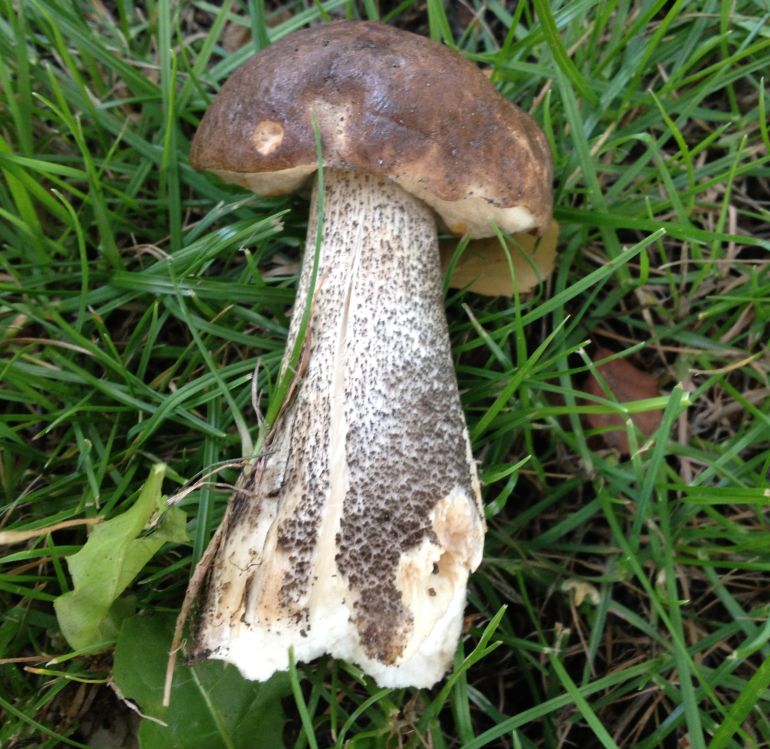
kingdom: Fungi
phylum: Basidiomycota
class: Agaricomycetes
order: Boletales
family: Boletaceae
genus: Leccinum
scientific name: Leccinum scabrum
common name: brun skælrørhat
